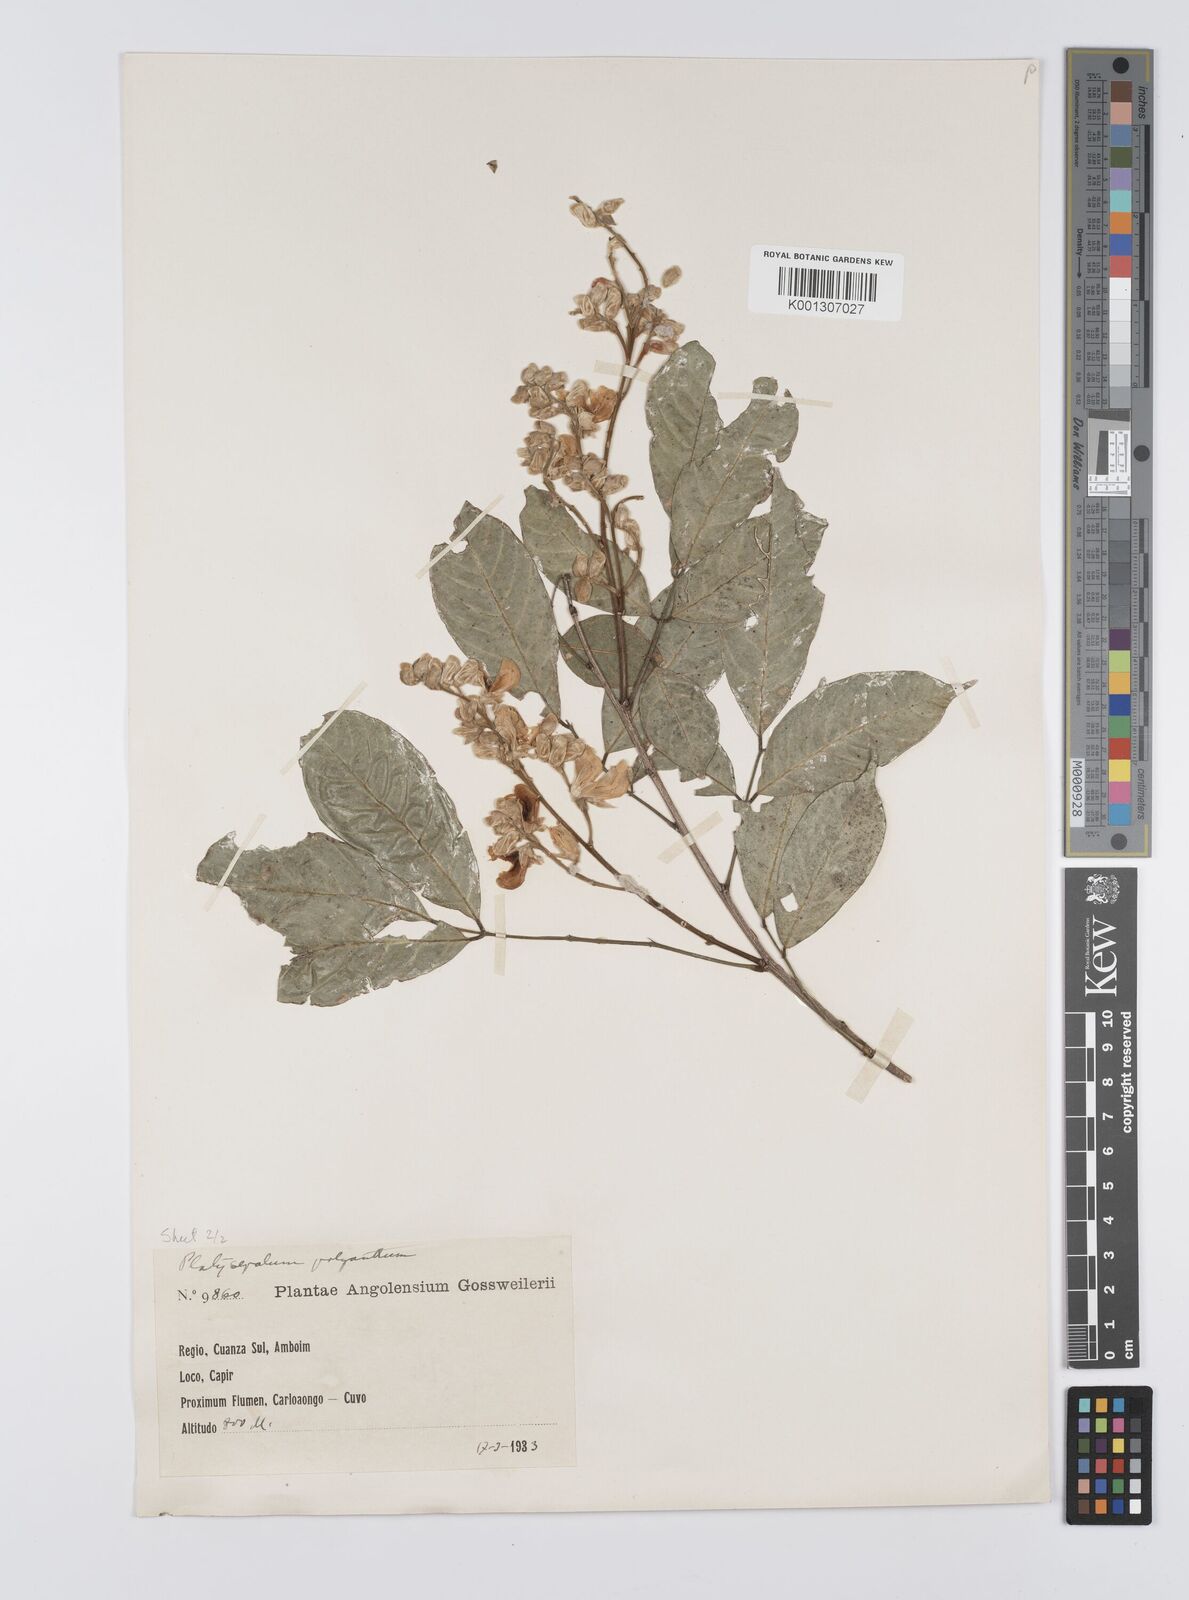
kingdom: Plantae
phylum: Tracheophyta
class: Magnoliopsida
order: Fabales
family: Fabaceae
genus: Platysepalum
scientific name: Platysepalum violaceum
